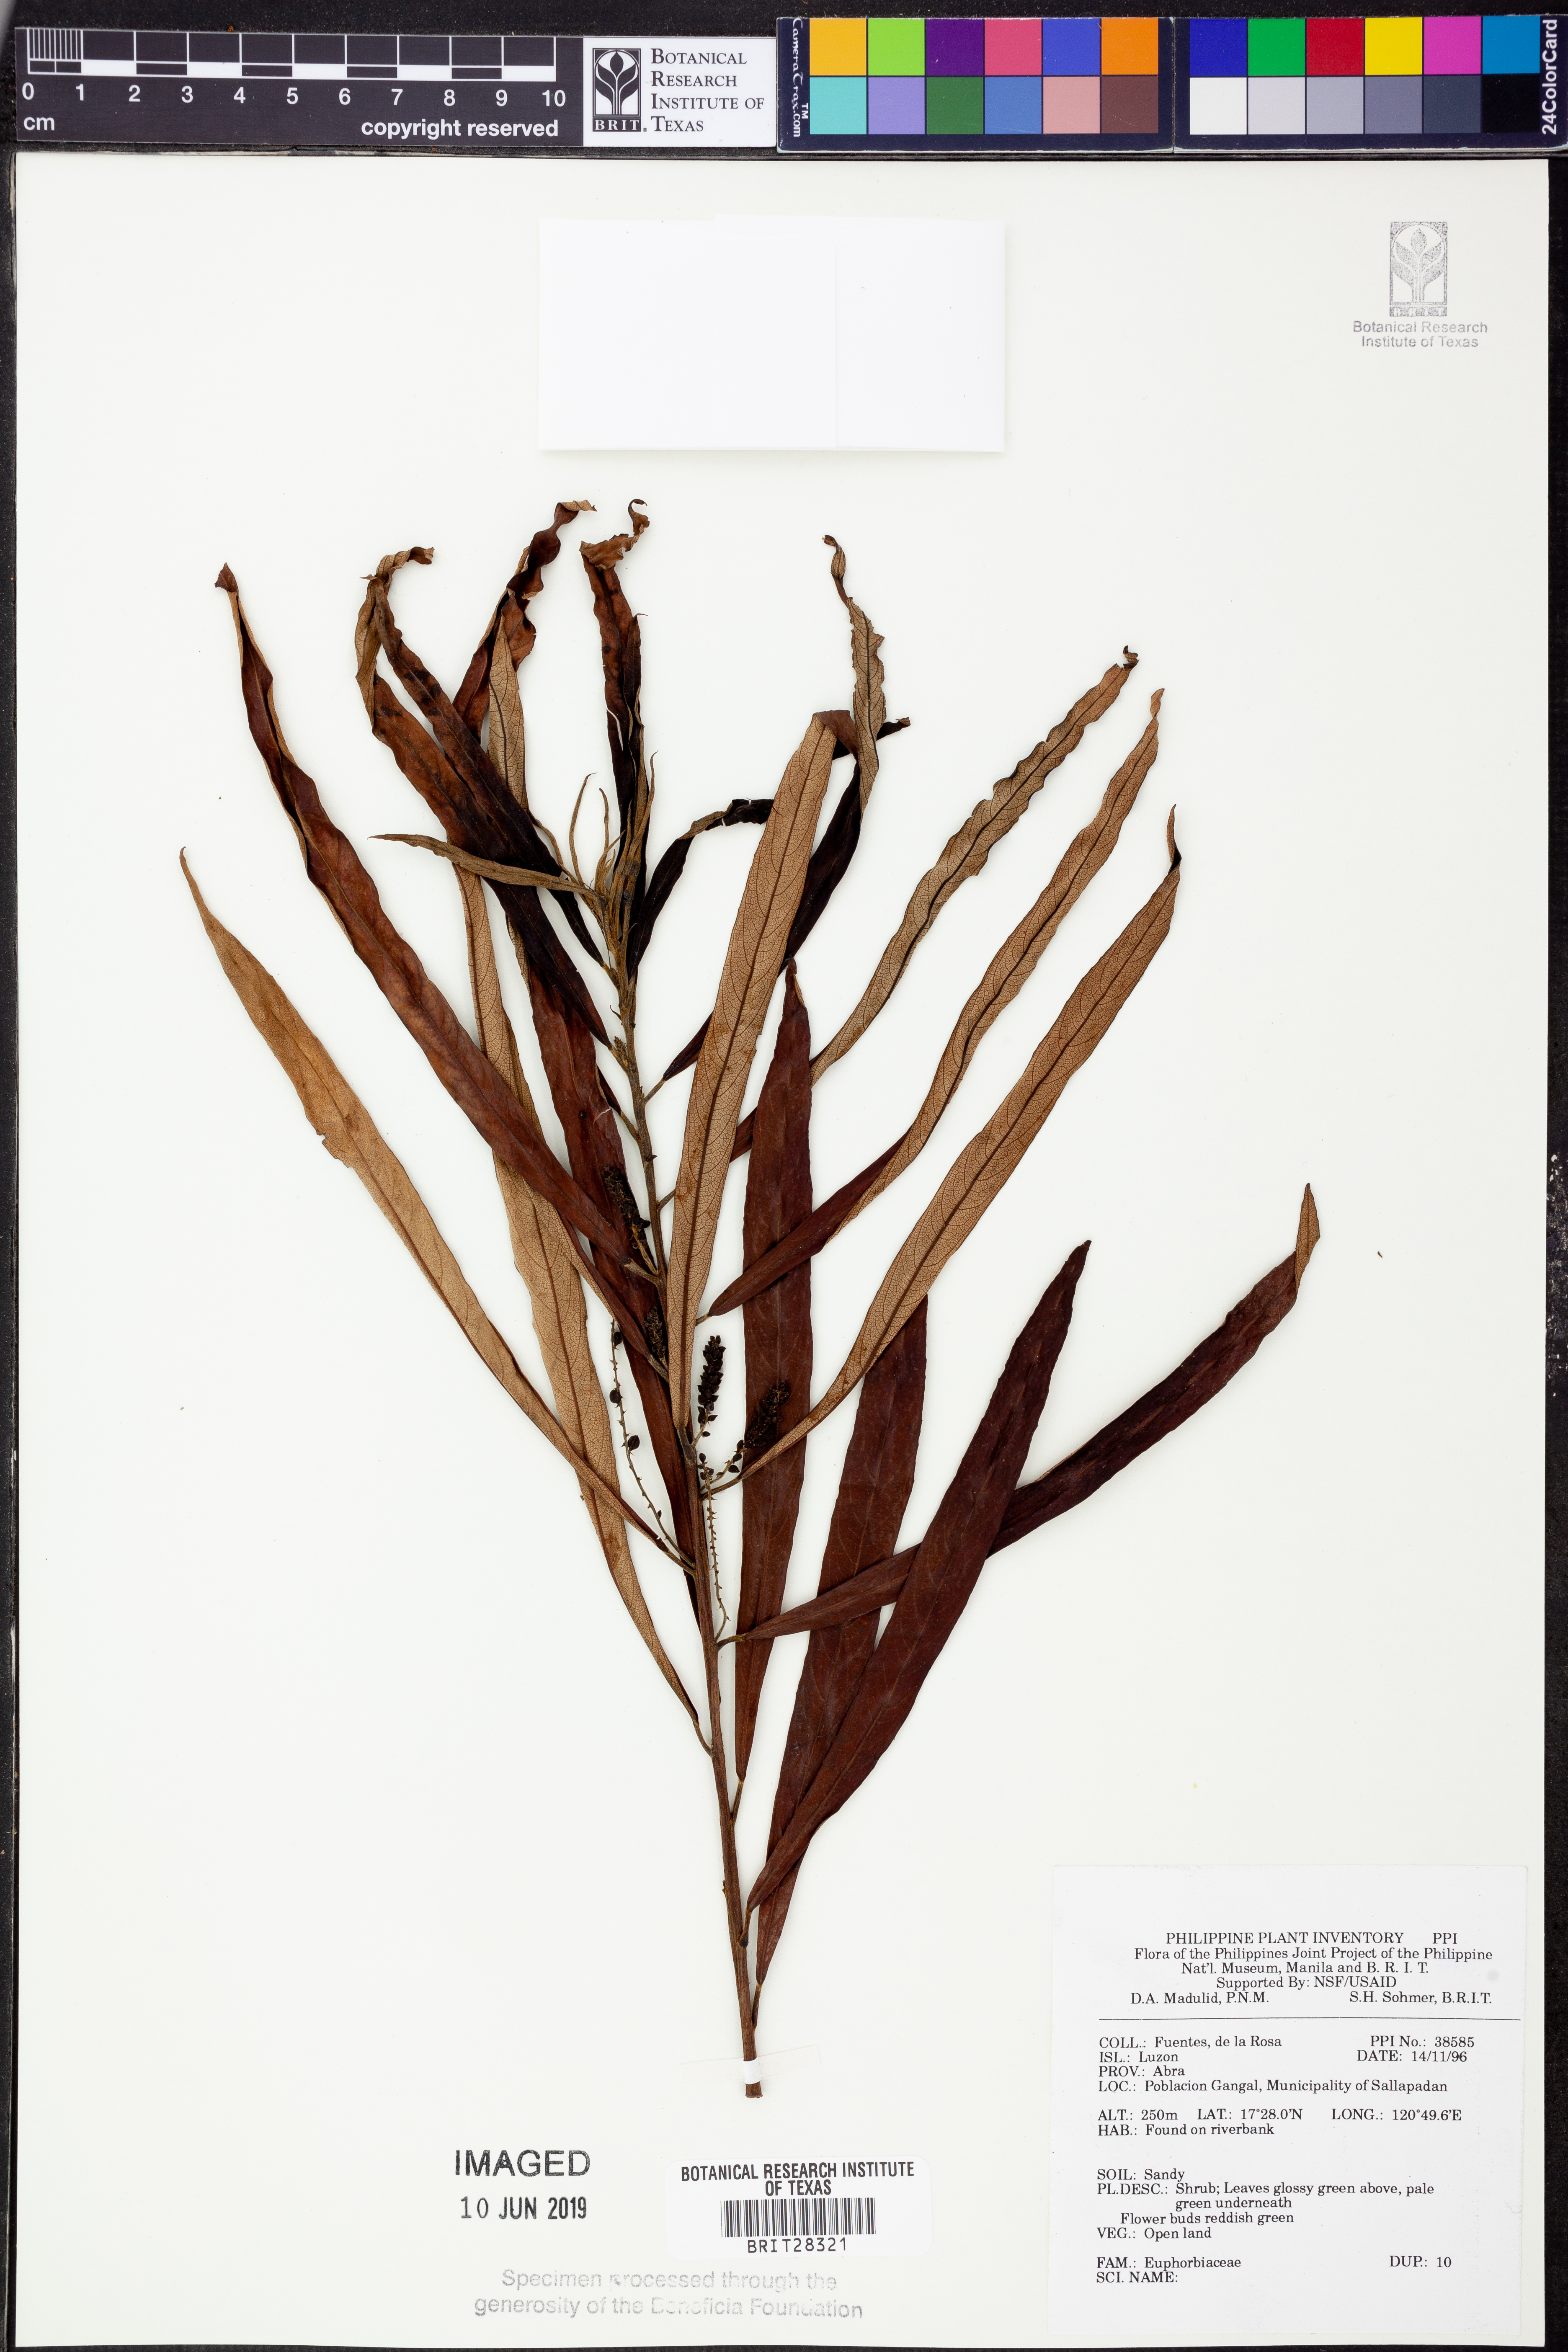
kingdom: Plantae
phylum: Tracheophyta
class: Magnoliopsida
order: Malpighiales
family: Euphorbiaceae
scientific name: Euphorbiaceae
